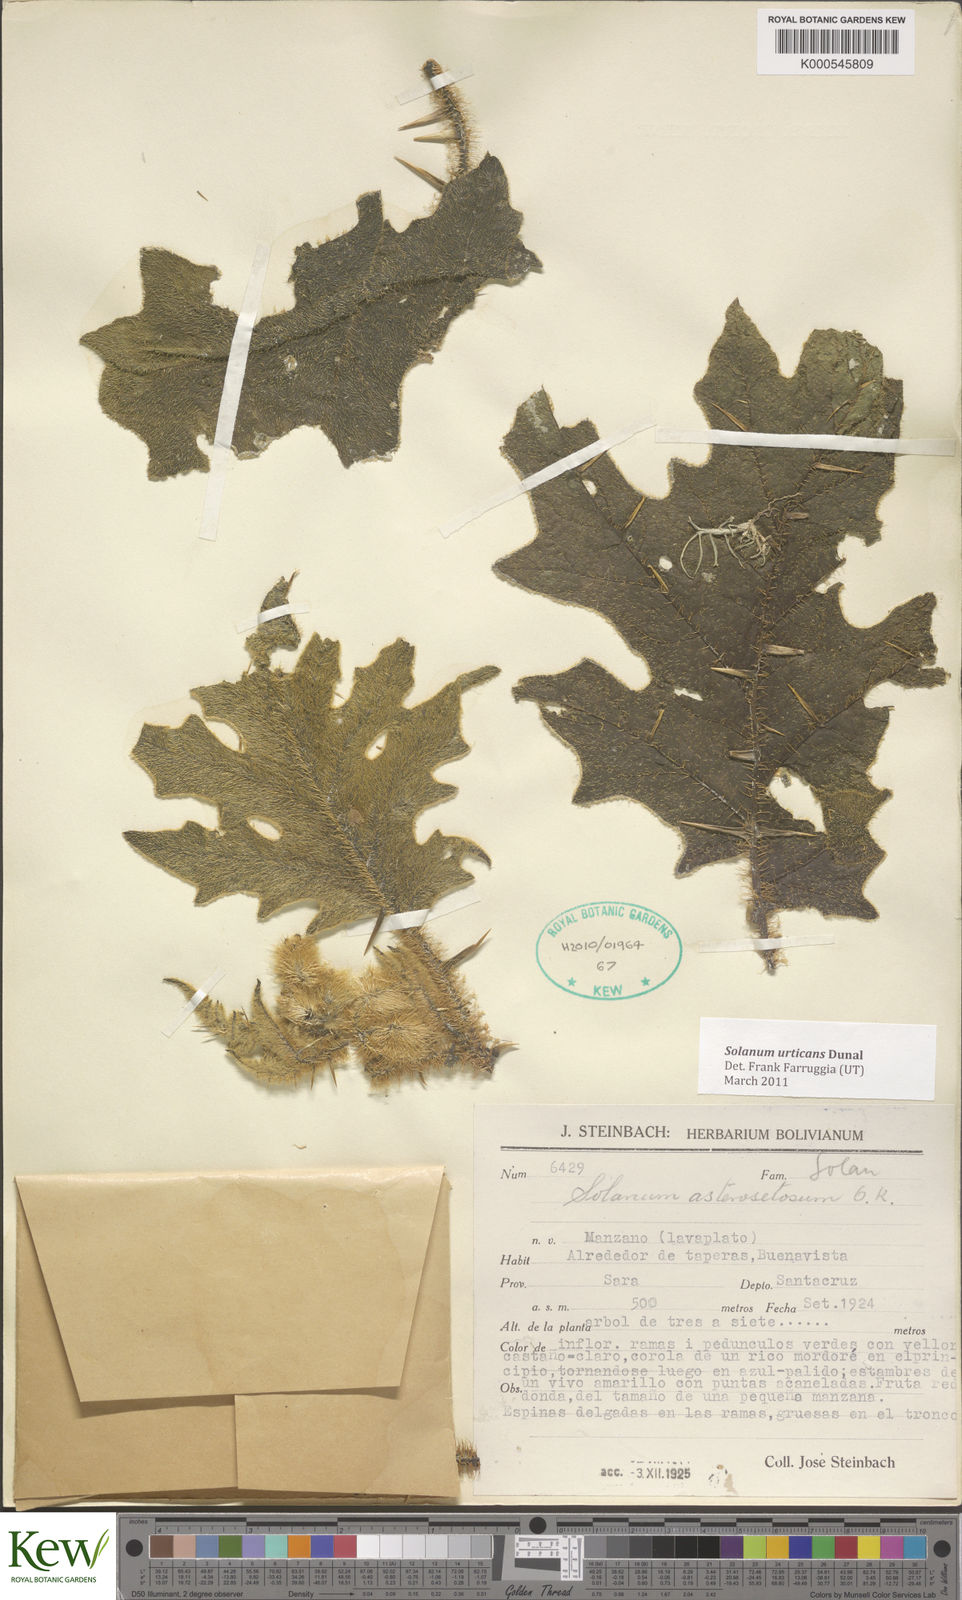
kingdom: Plantae
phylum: Tracheophyta
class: Magnoliopsida
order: Solanales
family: Solanaceae
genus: Solanum
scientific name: Solanum urticans
